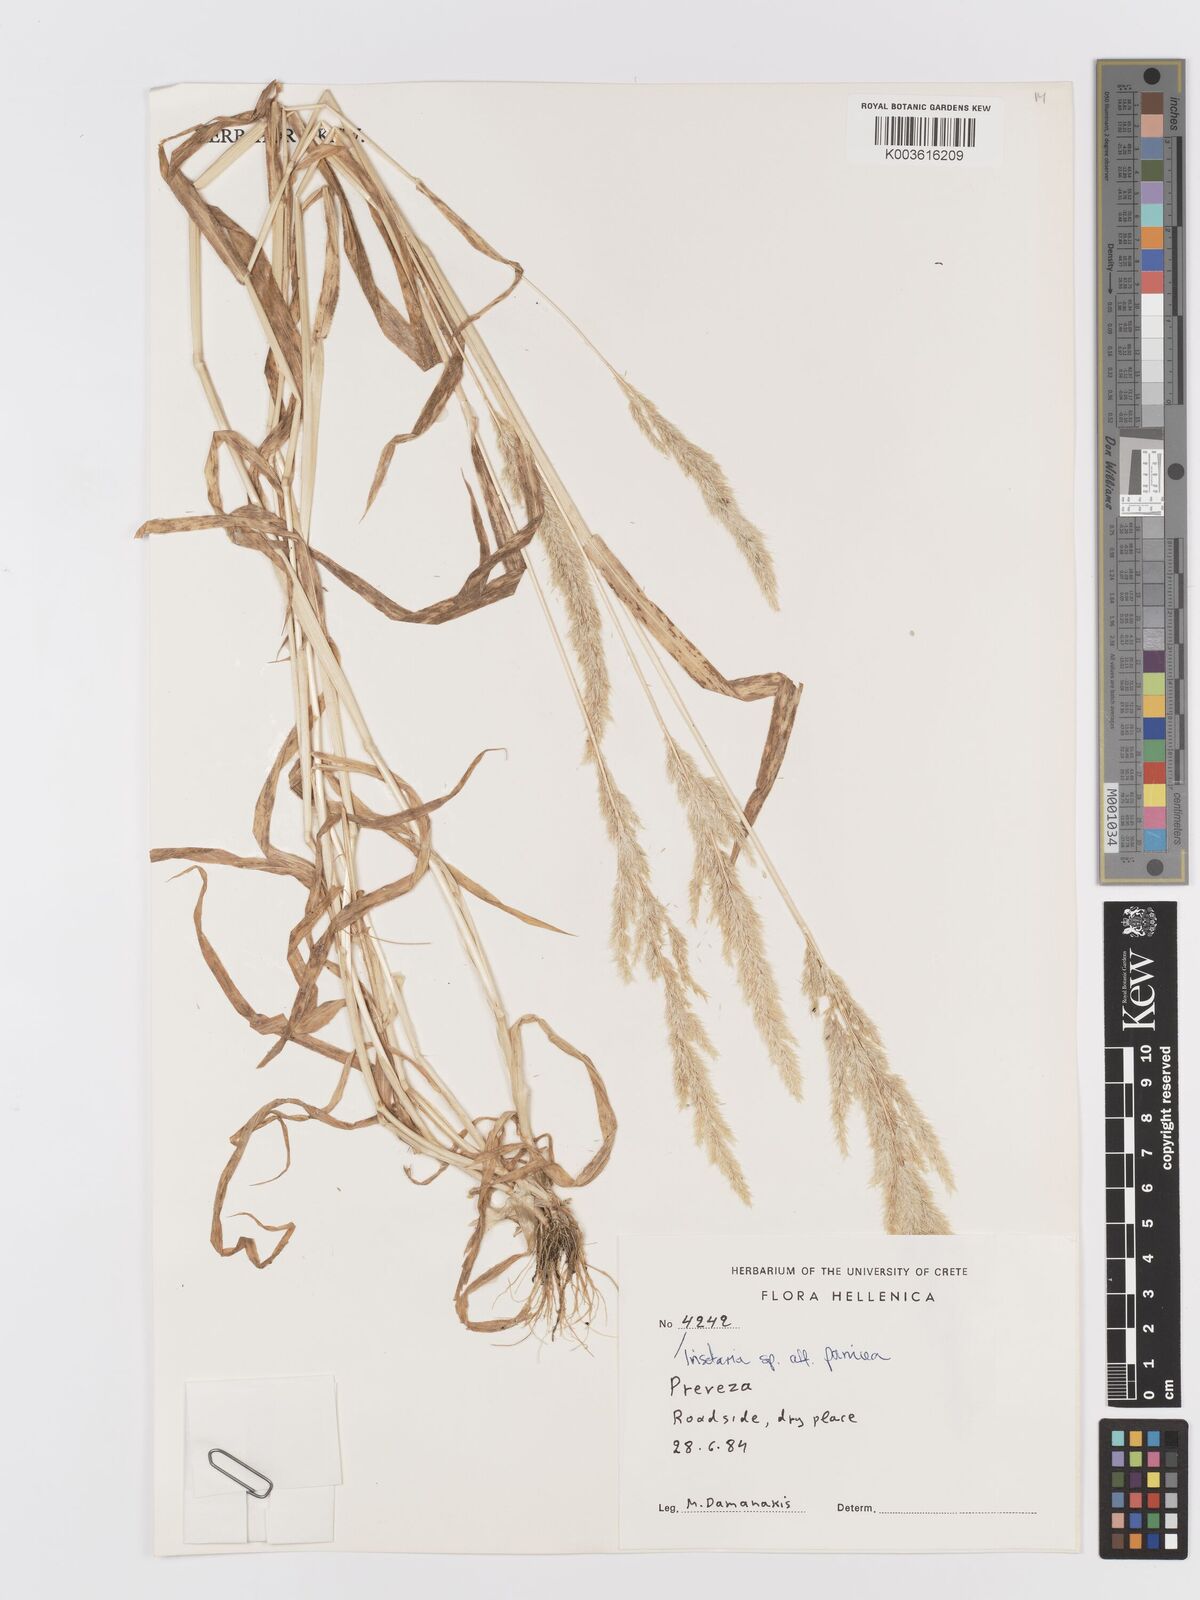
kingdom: Plantae
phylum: Tracheophyta
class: Liliopsida
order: Poales
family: Poaceae
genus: Trisetaria
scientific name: Trisetaria
